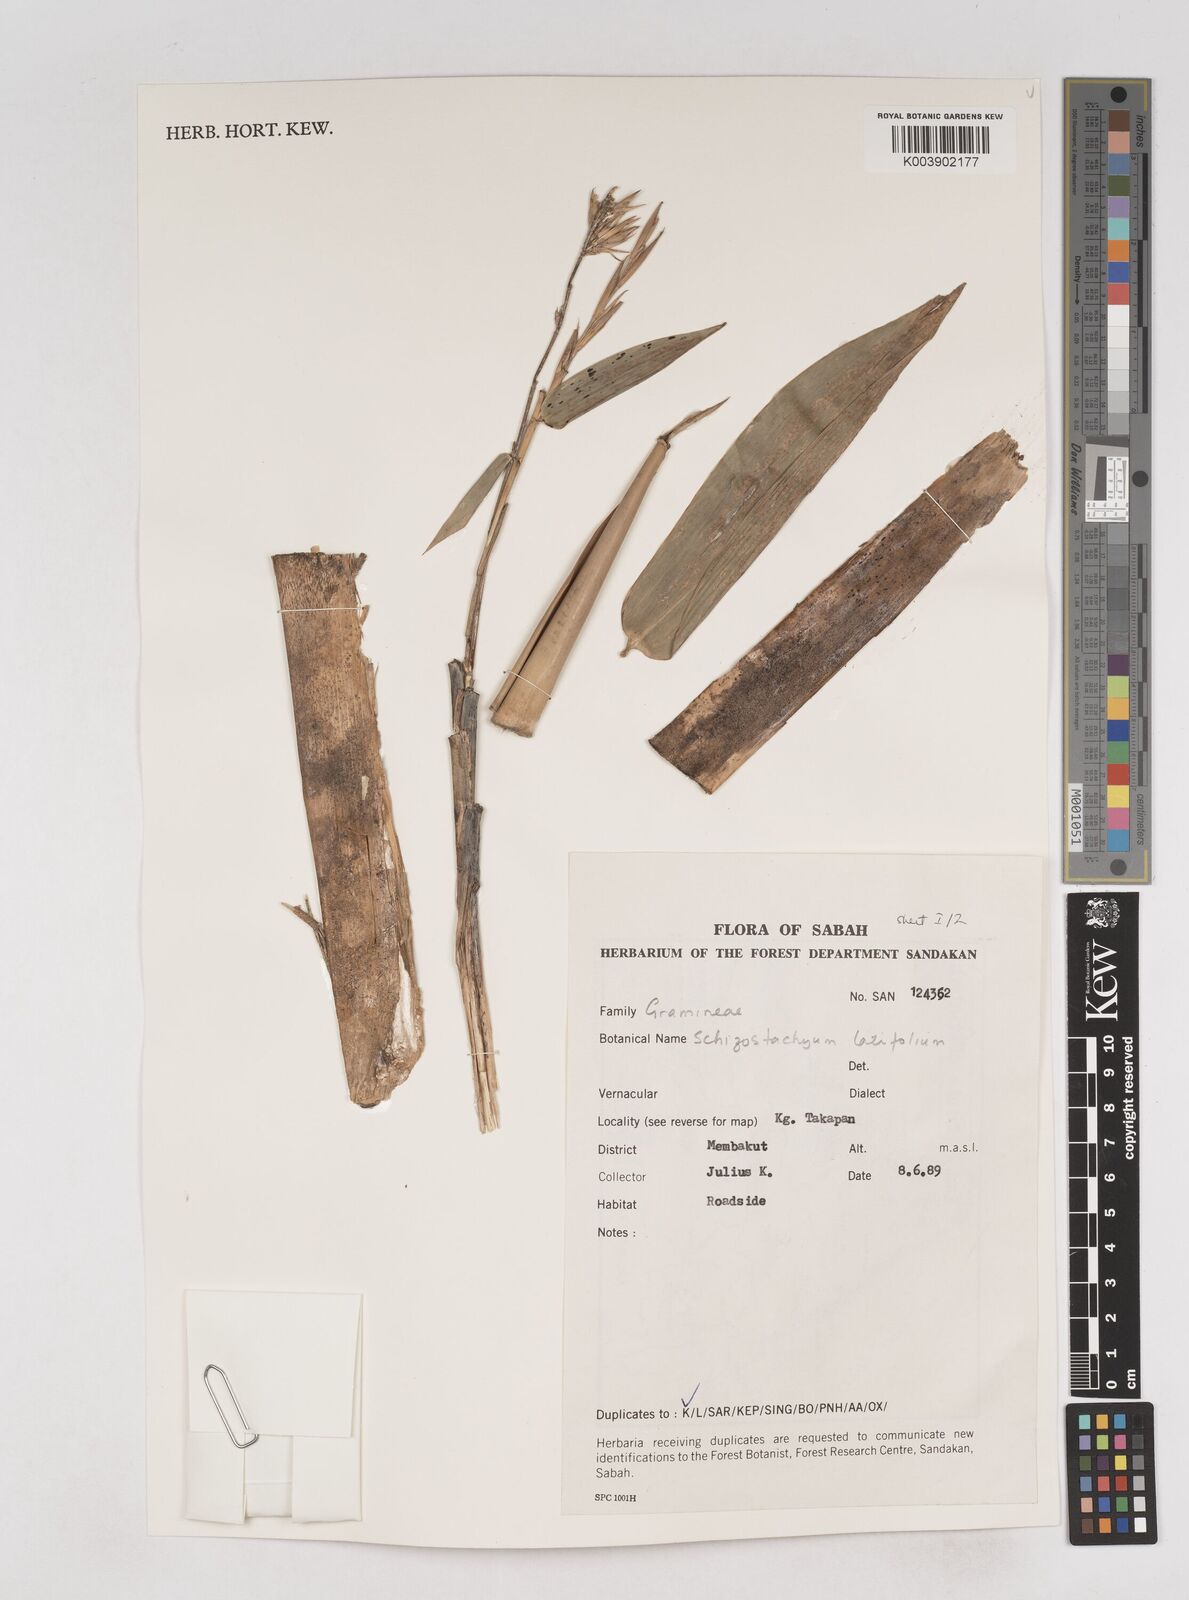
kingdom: Plantae
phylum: Tracheophyta
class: Liliopsida
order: Poales
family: Poaceae
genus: Schizostachyum
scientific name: Schizostachyum latifolium
